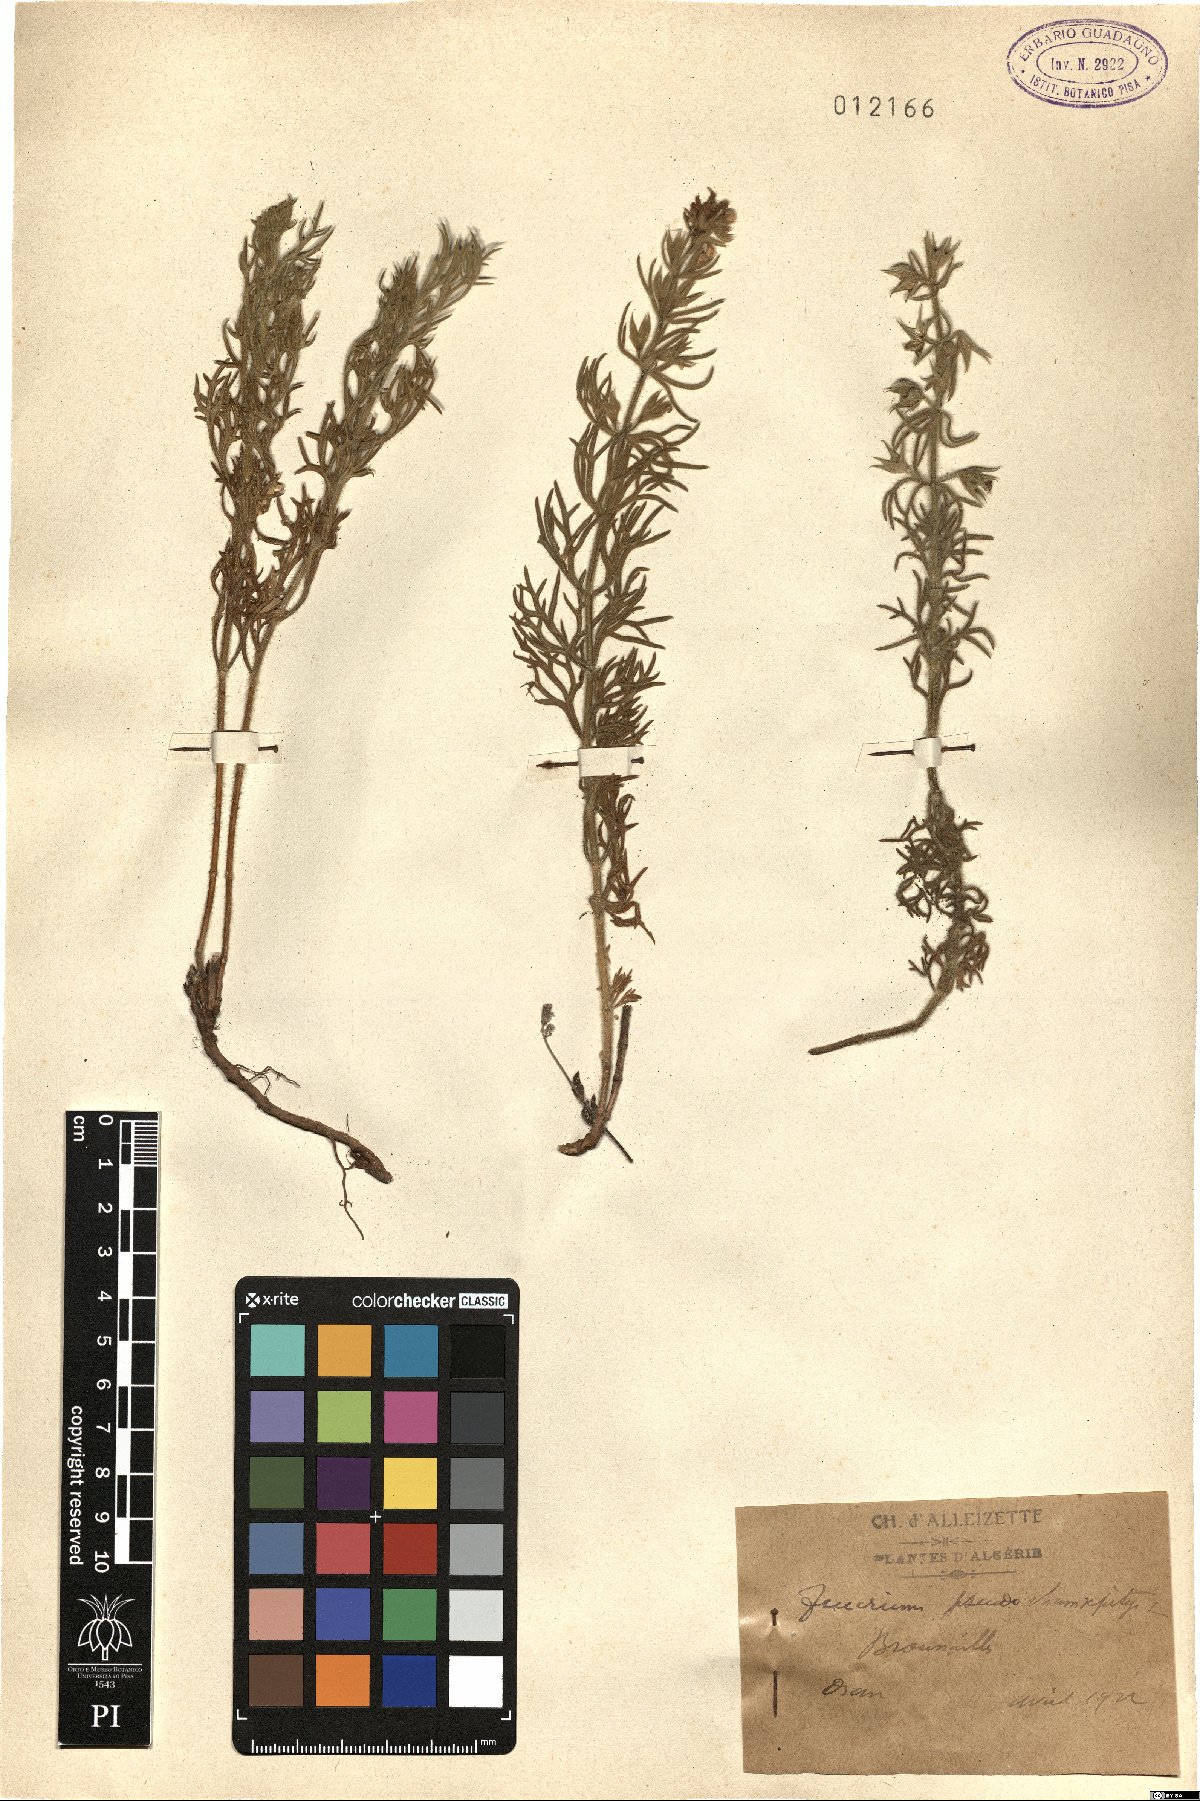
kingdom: Plantae
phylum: Tracheophyta
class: Magnoliopsida
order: Lamiales
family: Lamiaceae
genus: Teucrium
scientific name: Teucrium pseudochamaepitys
